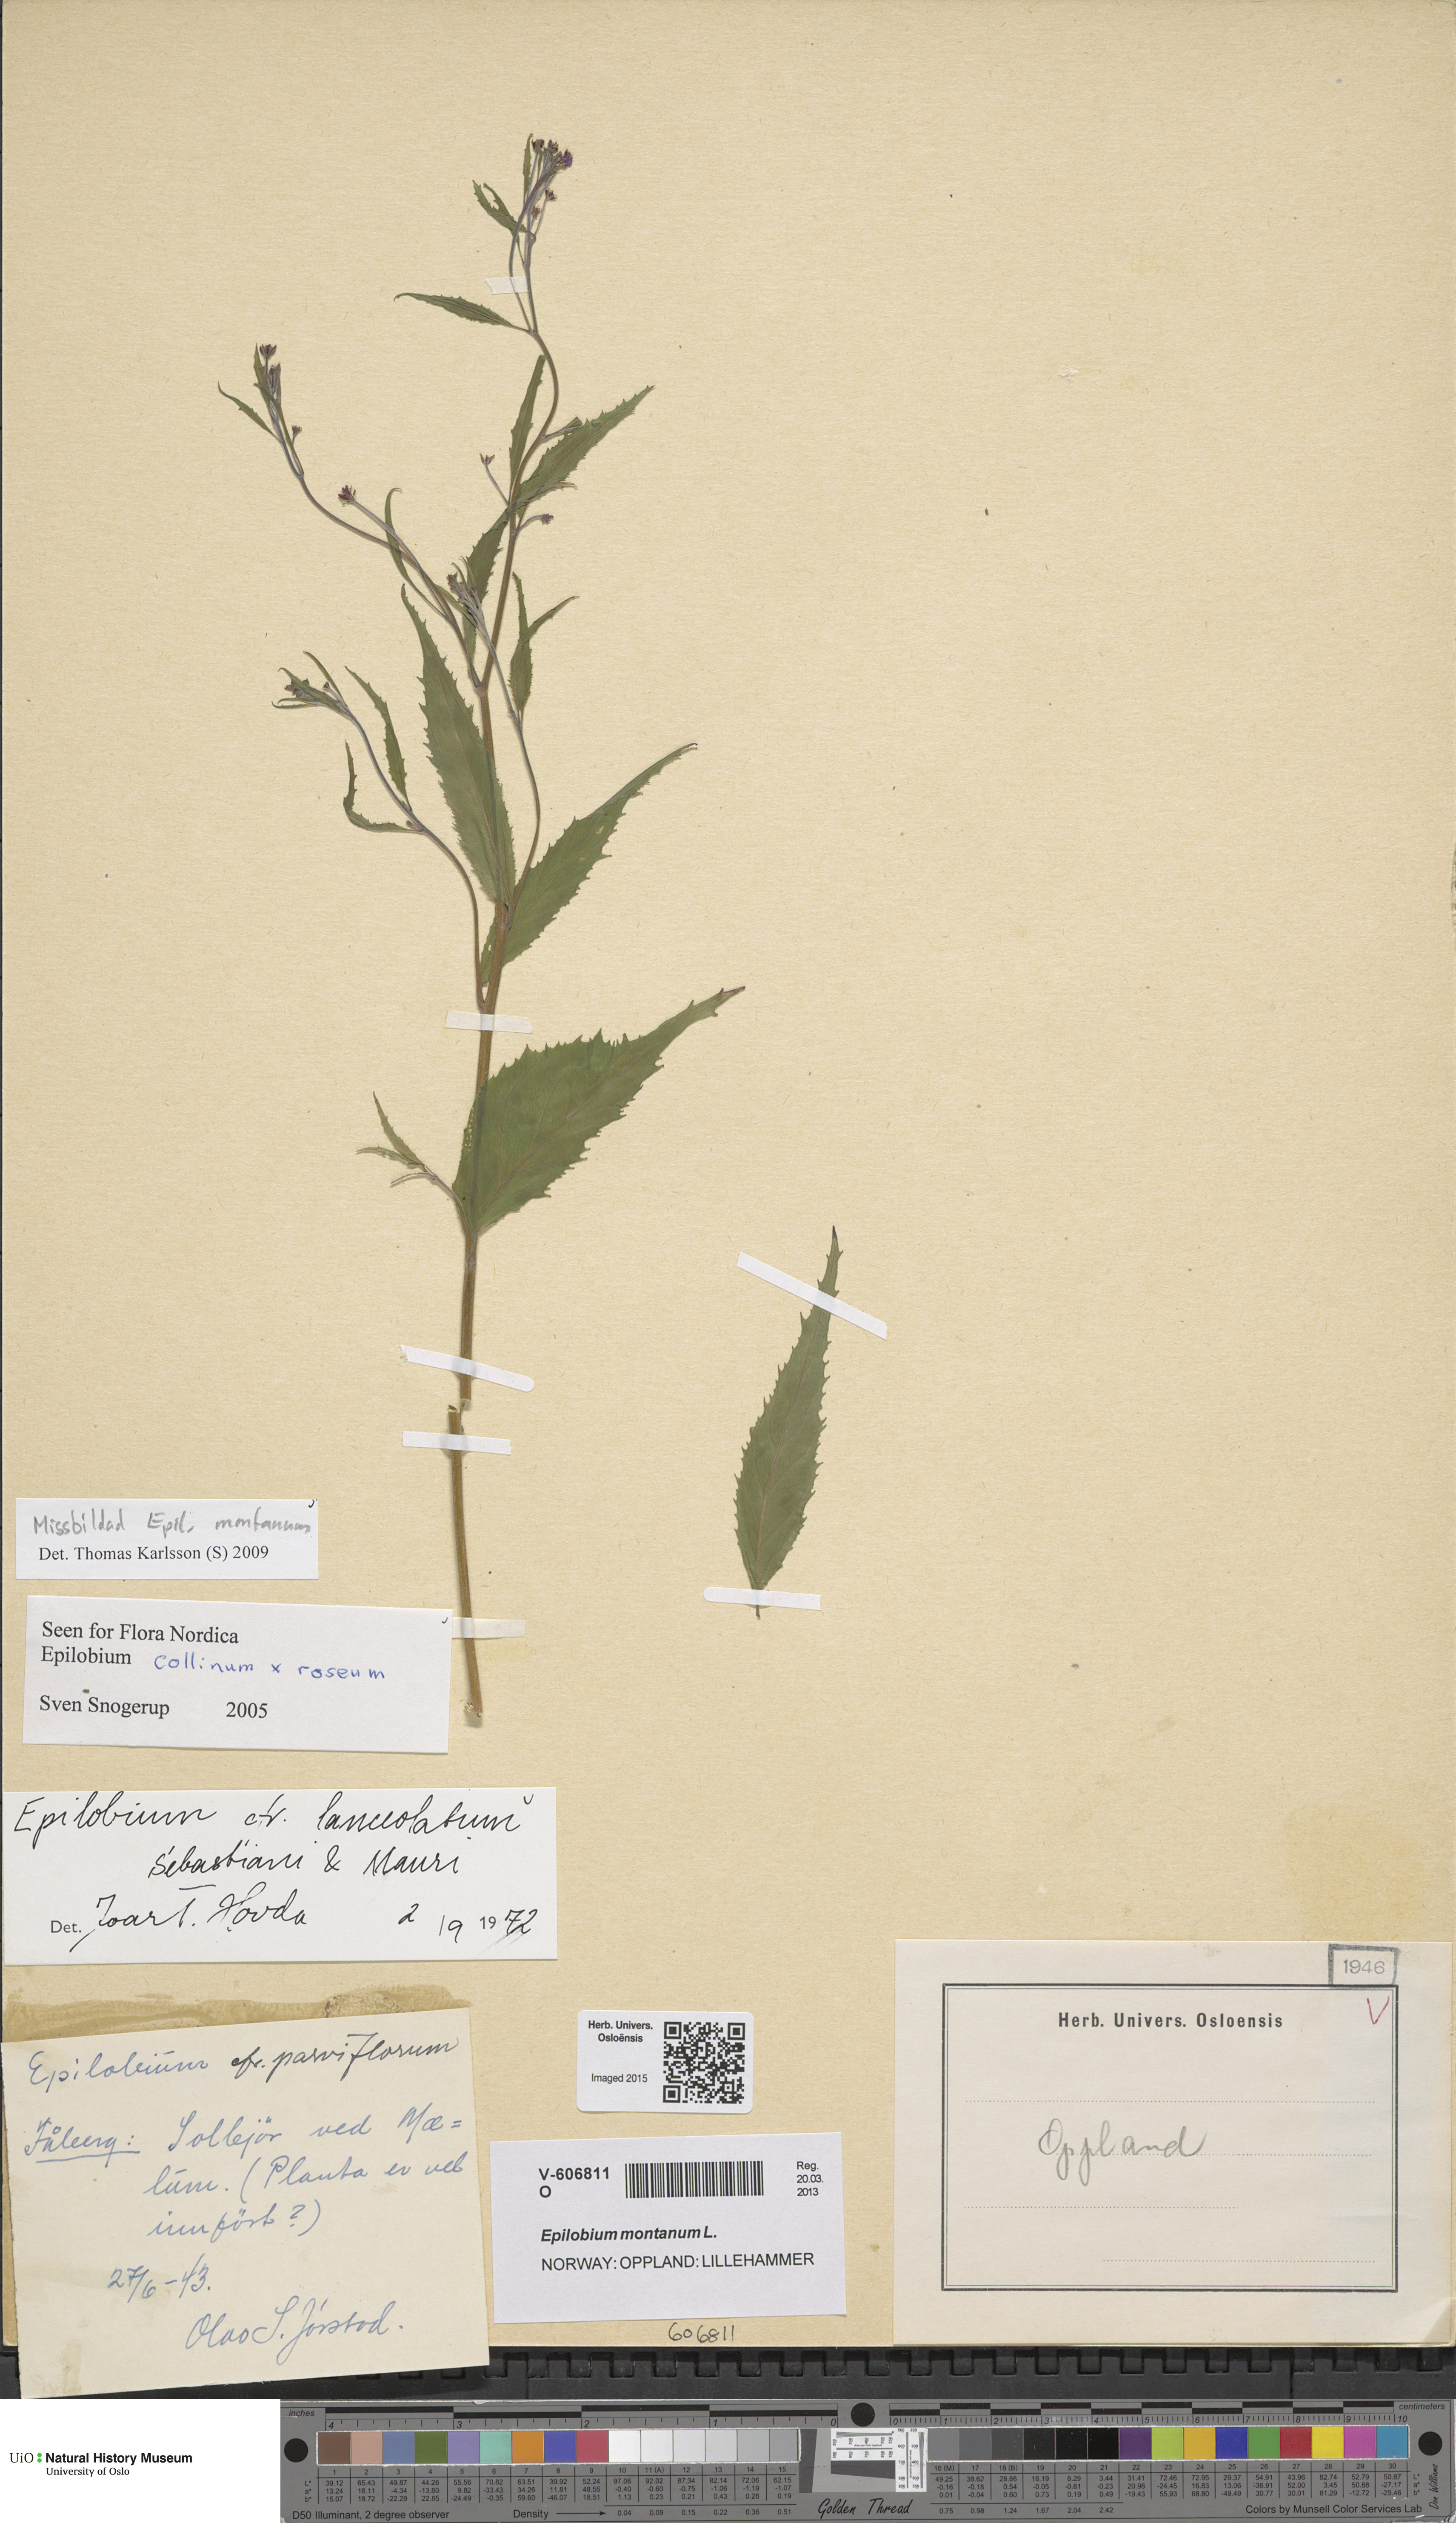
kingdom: Plantae
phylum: Tracheophyta
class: Magnoliopsida
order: Myrtales
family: Onagraceae
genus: Epilobium
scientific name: Epilobium montanum
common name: Broad-leaved willowherb
